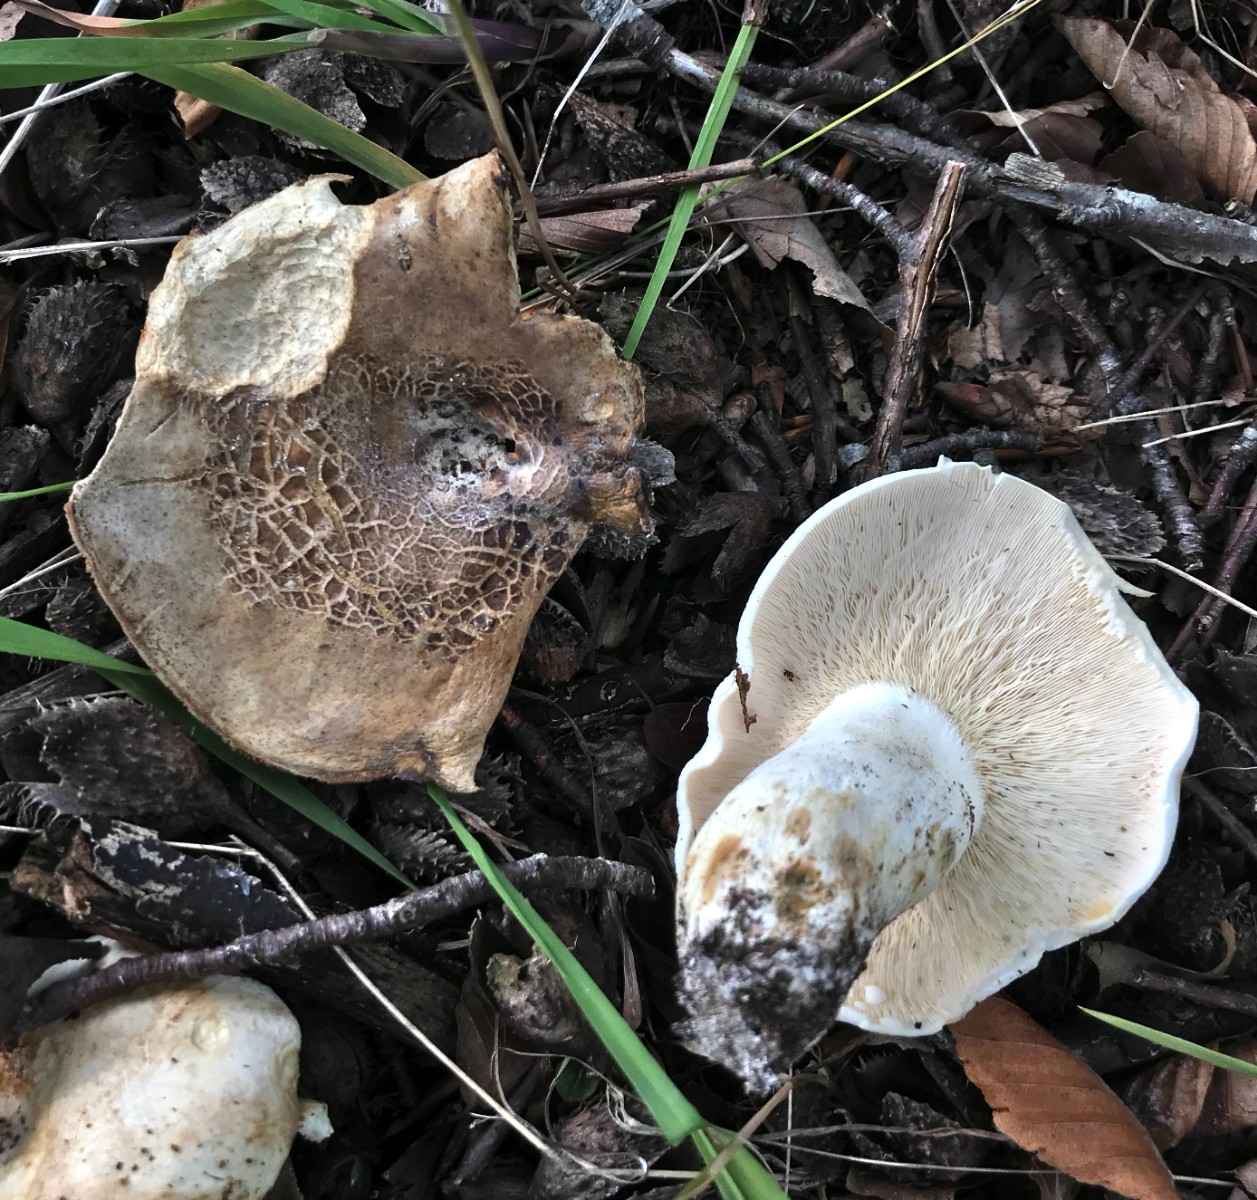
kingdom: Fungi
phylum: Basidiomycota
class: Agaricomycetes
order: Russulales
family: Russulaceae
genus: Lactifluus
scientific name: Lactifluus piperatus
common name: peber-mælkehat
